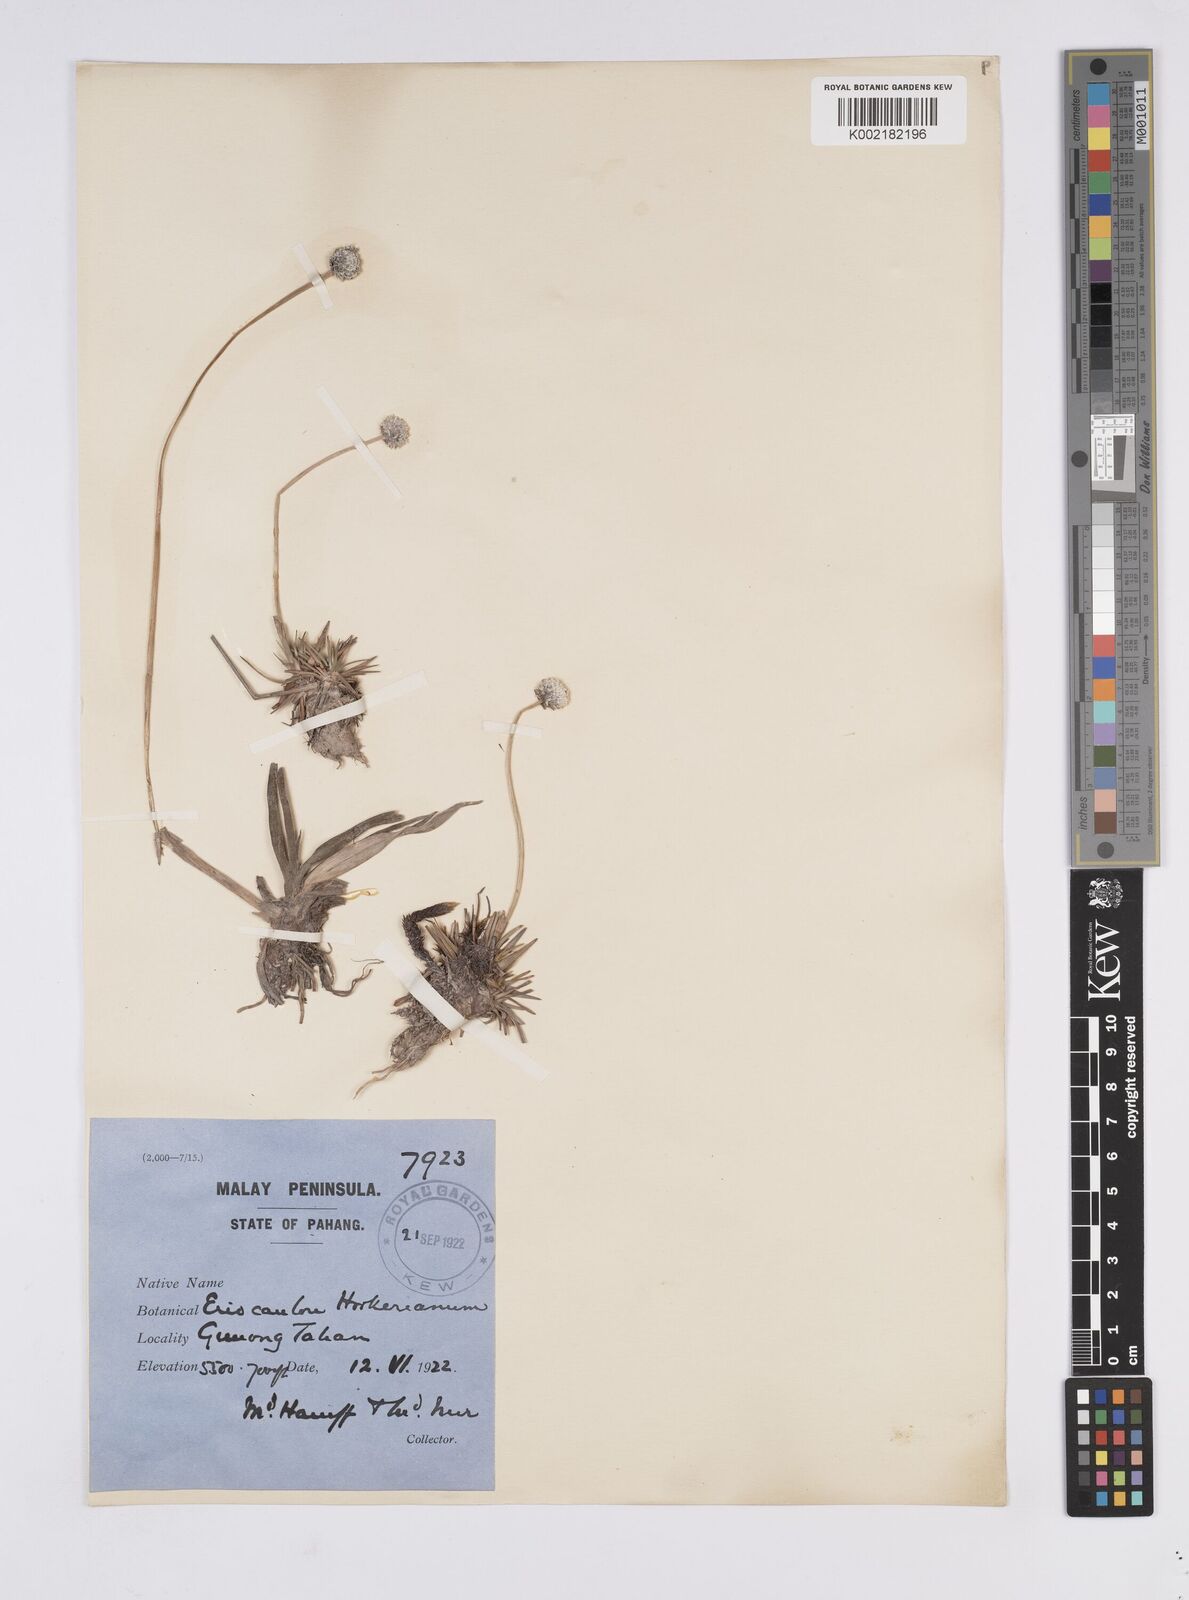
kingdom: Plantae
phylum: Tracheophyta
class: Liliopsida
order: Poales
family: Eriocaulaceae
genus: Eriocaulon
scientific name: Eriocaulon hookerianum
